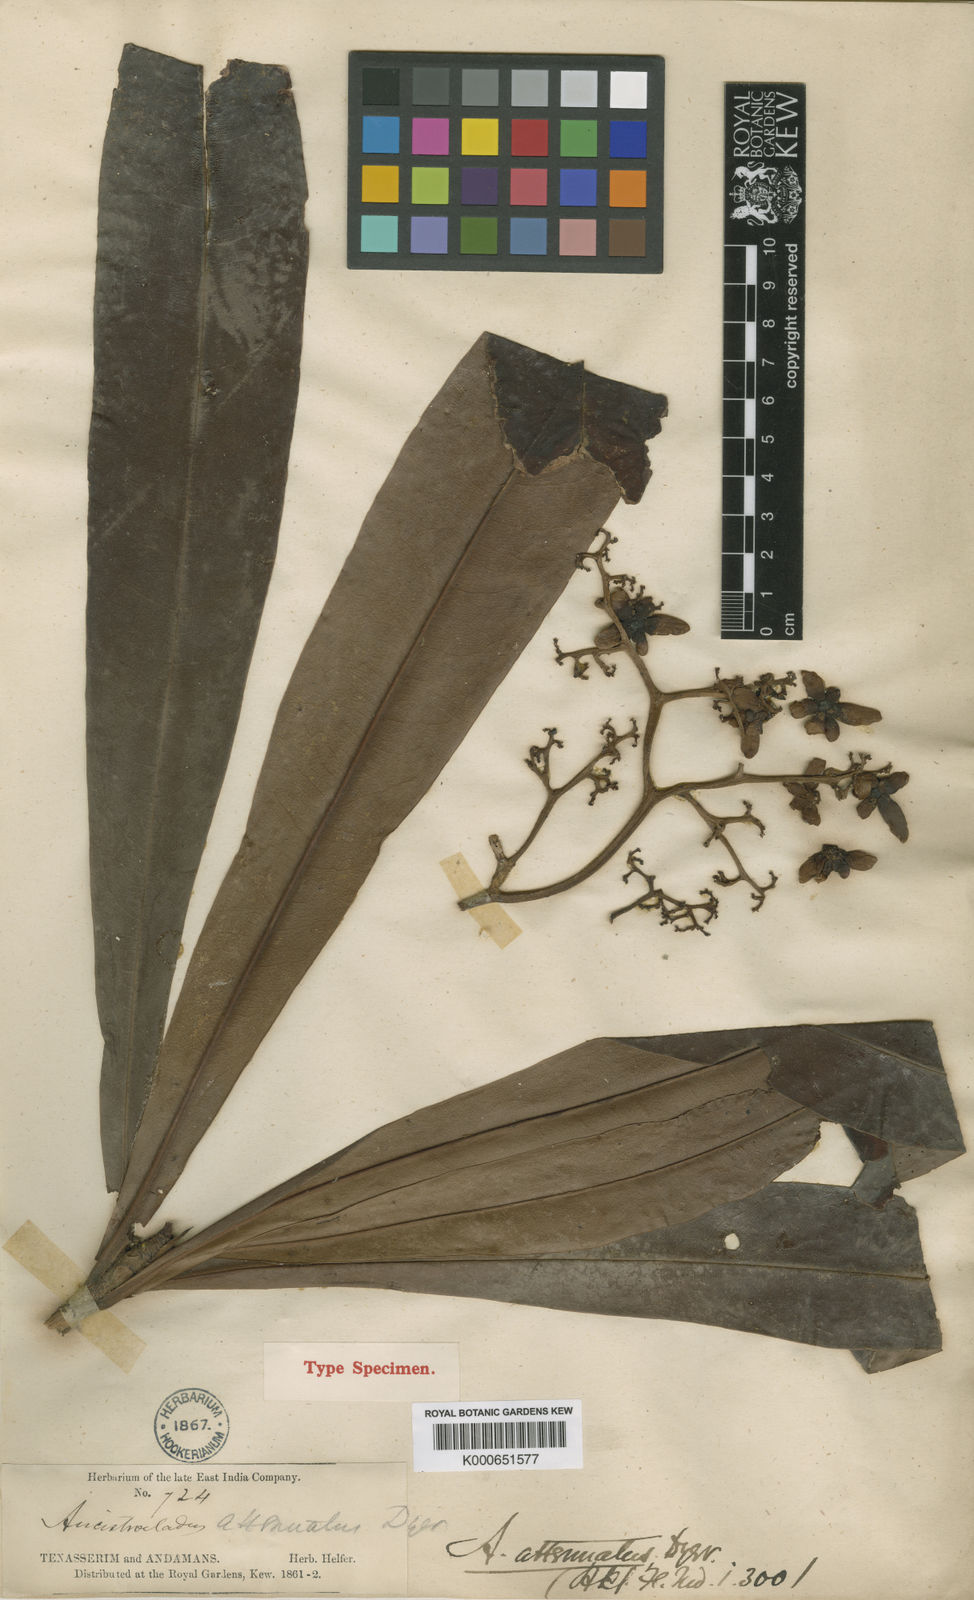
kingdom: Plantae
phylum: Tracheophyta
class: Magnoliopsida
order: Caryophyllales
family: Ancistrocladaceae
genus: Ancistrocladus
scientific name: Ancistrocladus attenuatus
